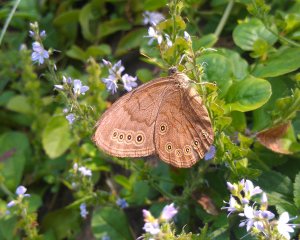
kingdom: Animalia
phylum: Arthropoda
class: Insecta
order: Lepidoptera
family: Nymphalidae
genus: Lethe
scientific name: Lethe eurydice
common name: Eyed Brown
